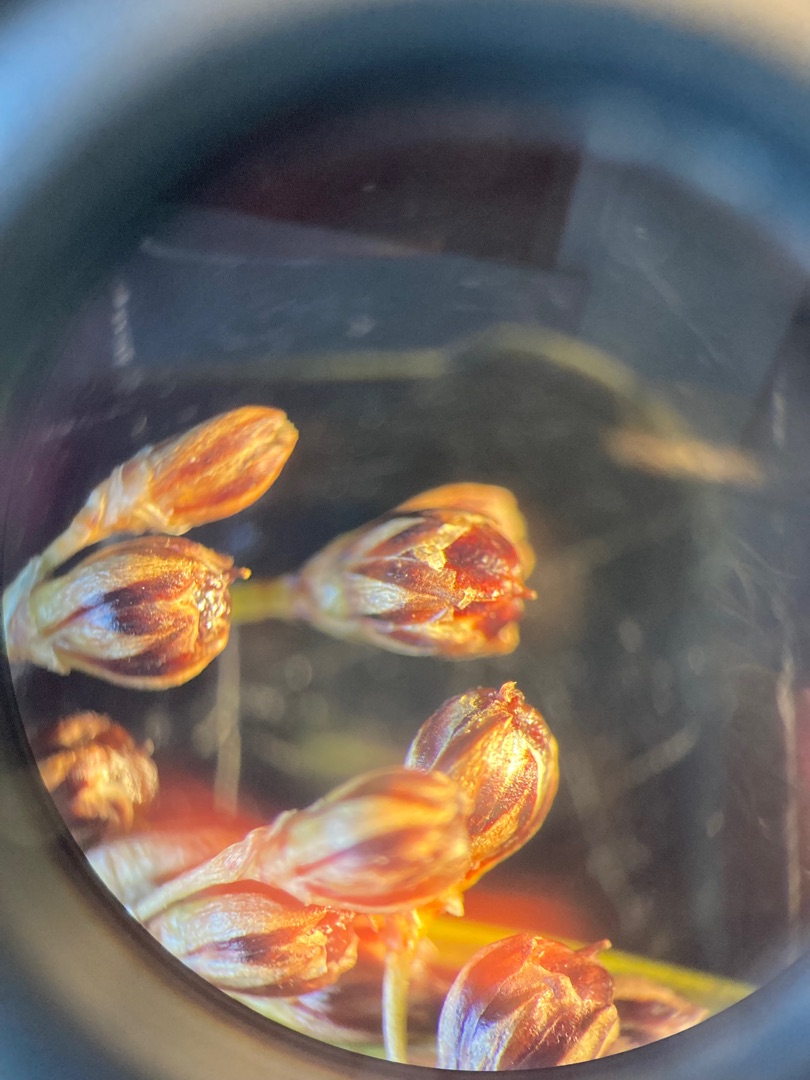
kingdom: Plantae
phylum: Tracheophyta
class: Liliopsida
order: Poales
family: Juncaceae
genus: Juncus
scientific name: Juncus compressus
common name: Fladstrået siv
